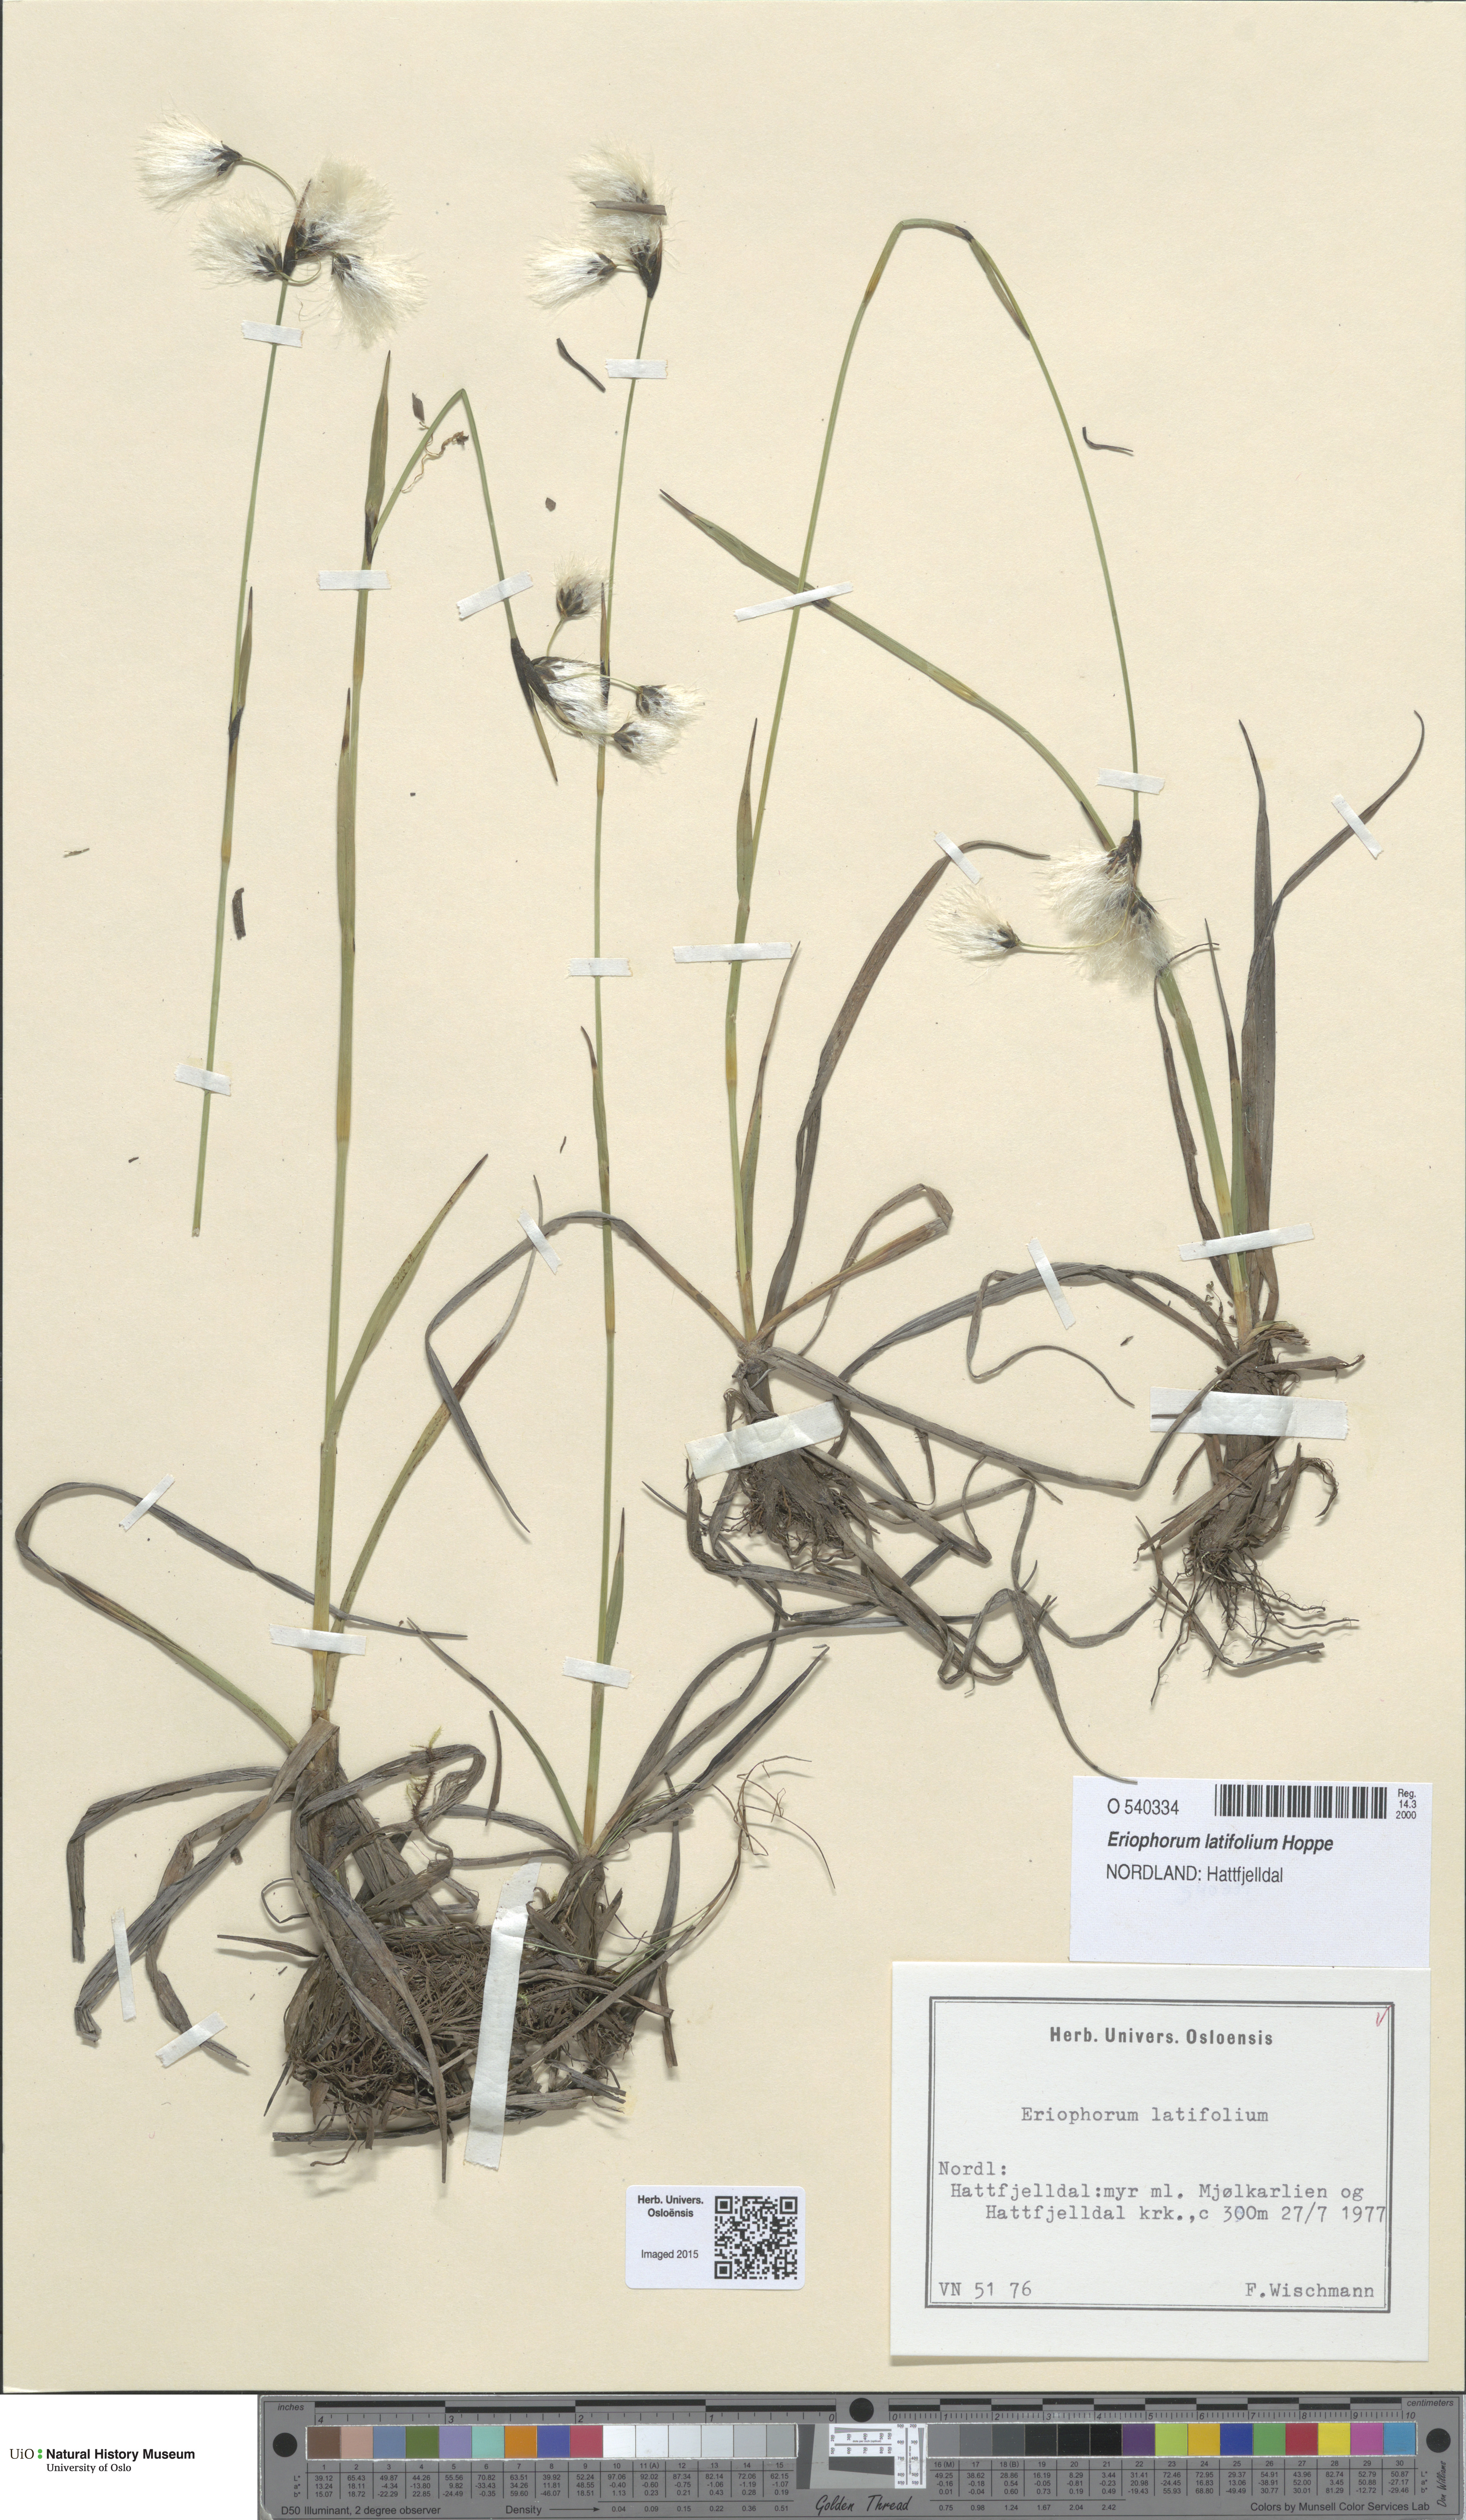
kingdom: Plantae
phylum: Tracheophyta
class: Liliopsida
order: Poales
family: Cyperaceae
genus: Eriophorum
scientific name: Eriophorum latifolium
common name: Broad-leaved cottongrass
